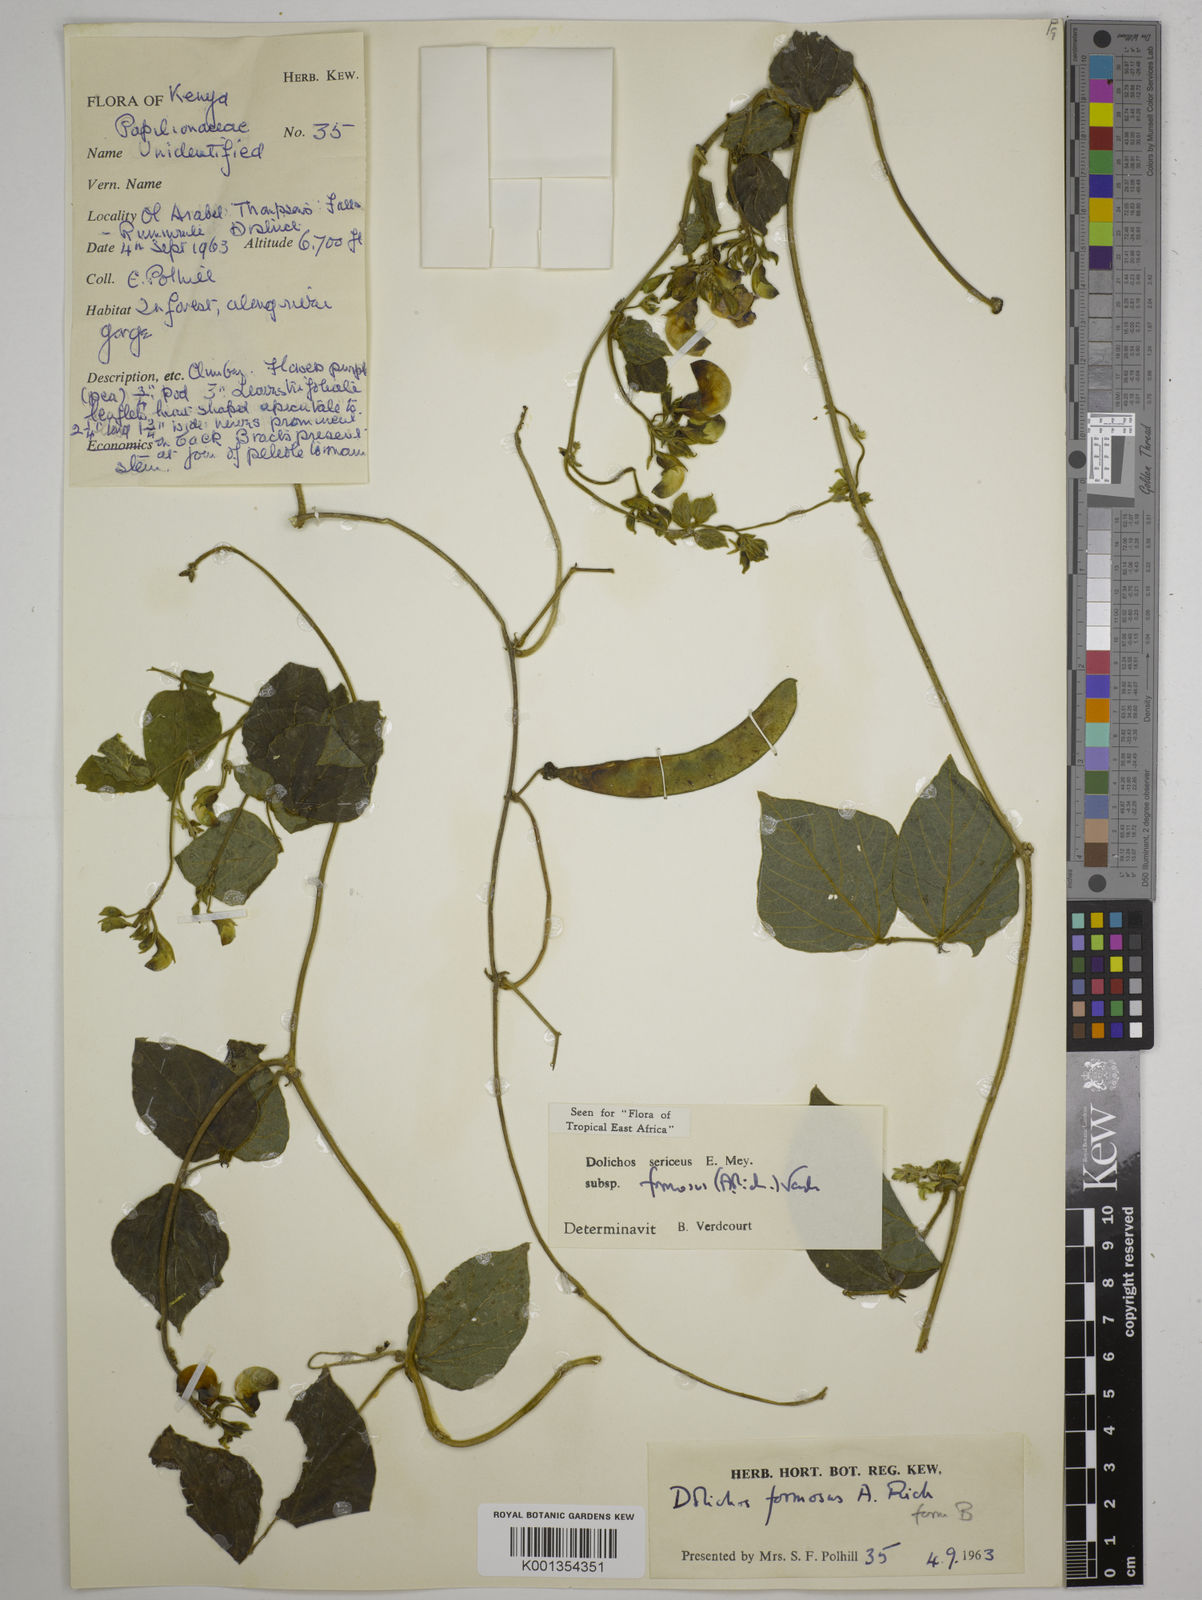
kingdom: Plantae
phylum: Tracheophyta
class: Magnoliopsida
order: Fabales
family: Fabaceae
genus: Dolichos
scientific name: Dolichos
